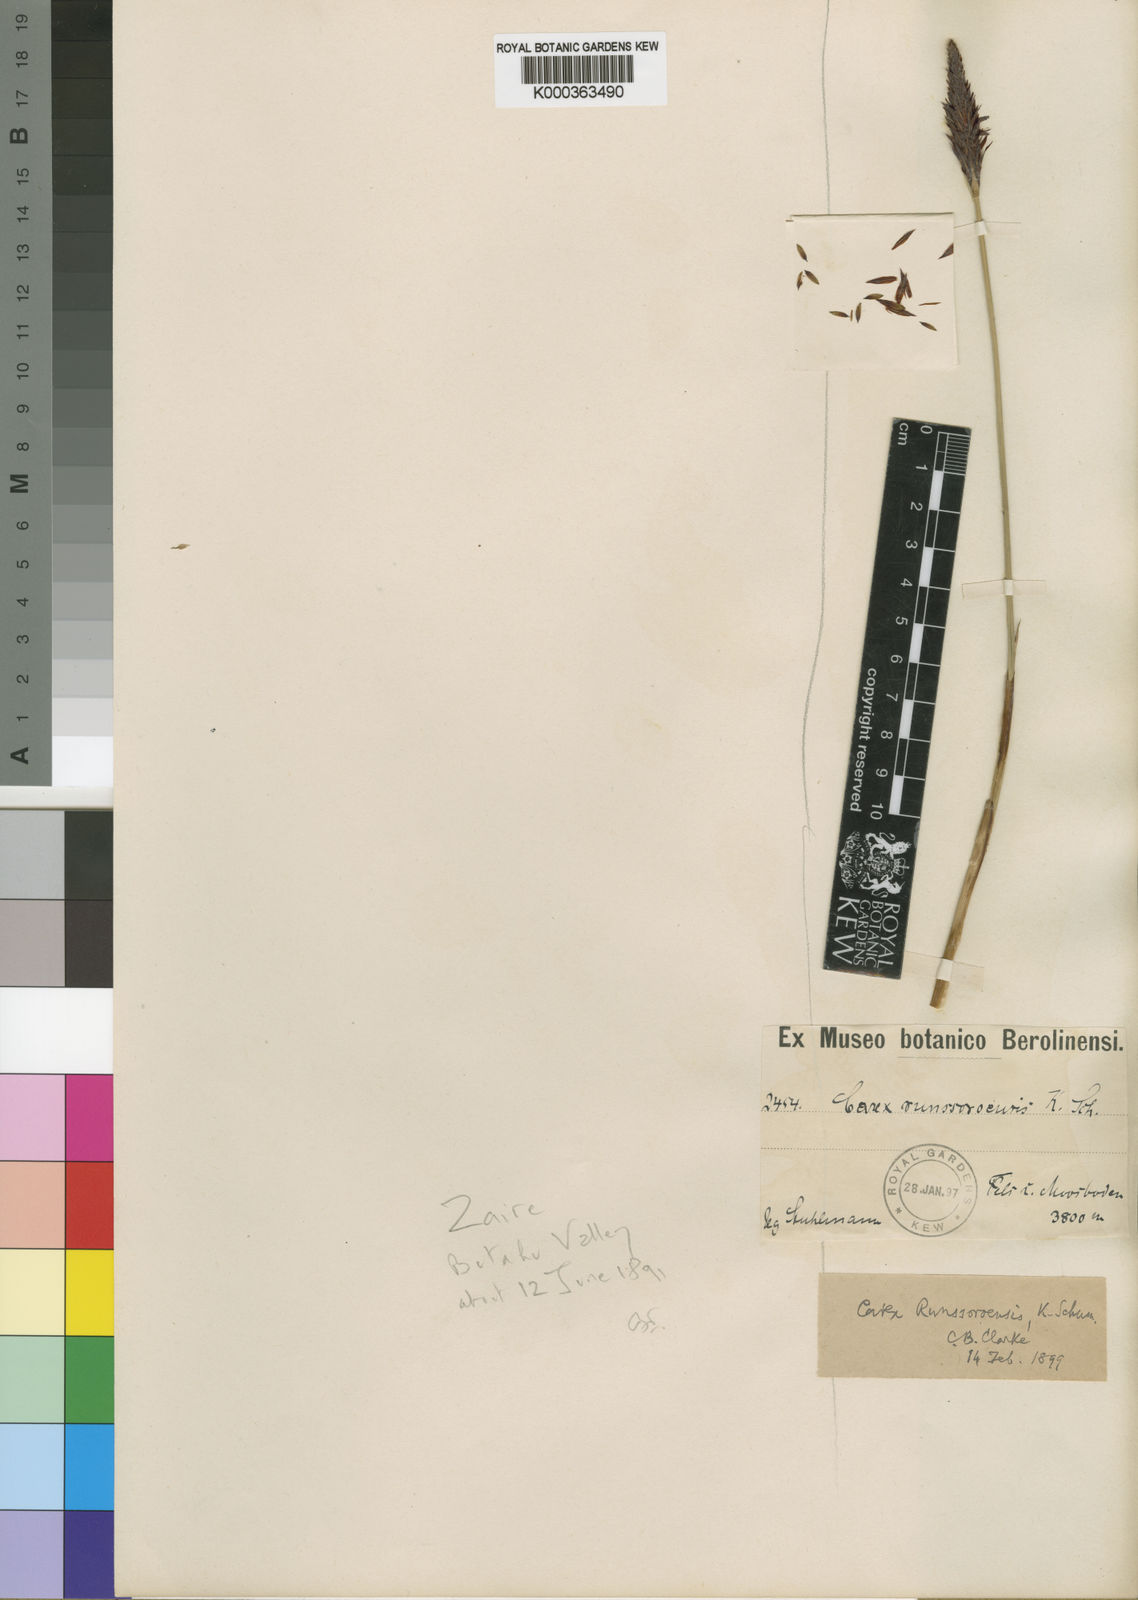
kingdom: Plantae
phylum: Tracheophyta
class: Liliopsida
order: Poales
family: Cyperaceae
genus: Carex
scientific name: Carex runssoroensis
